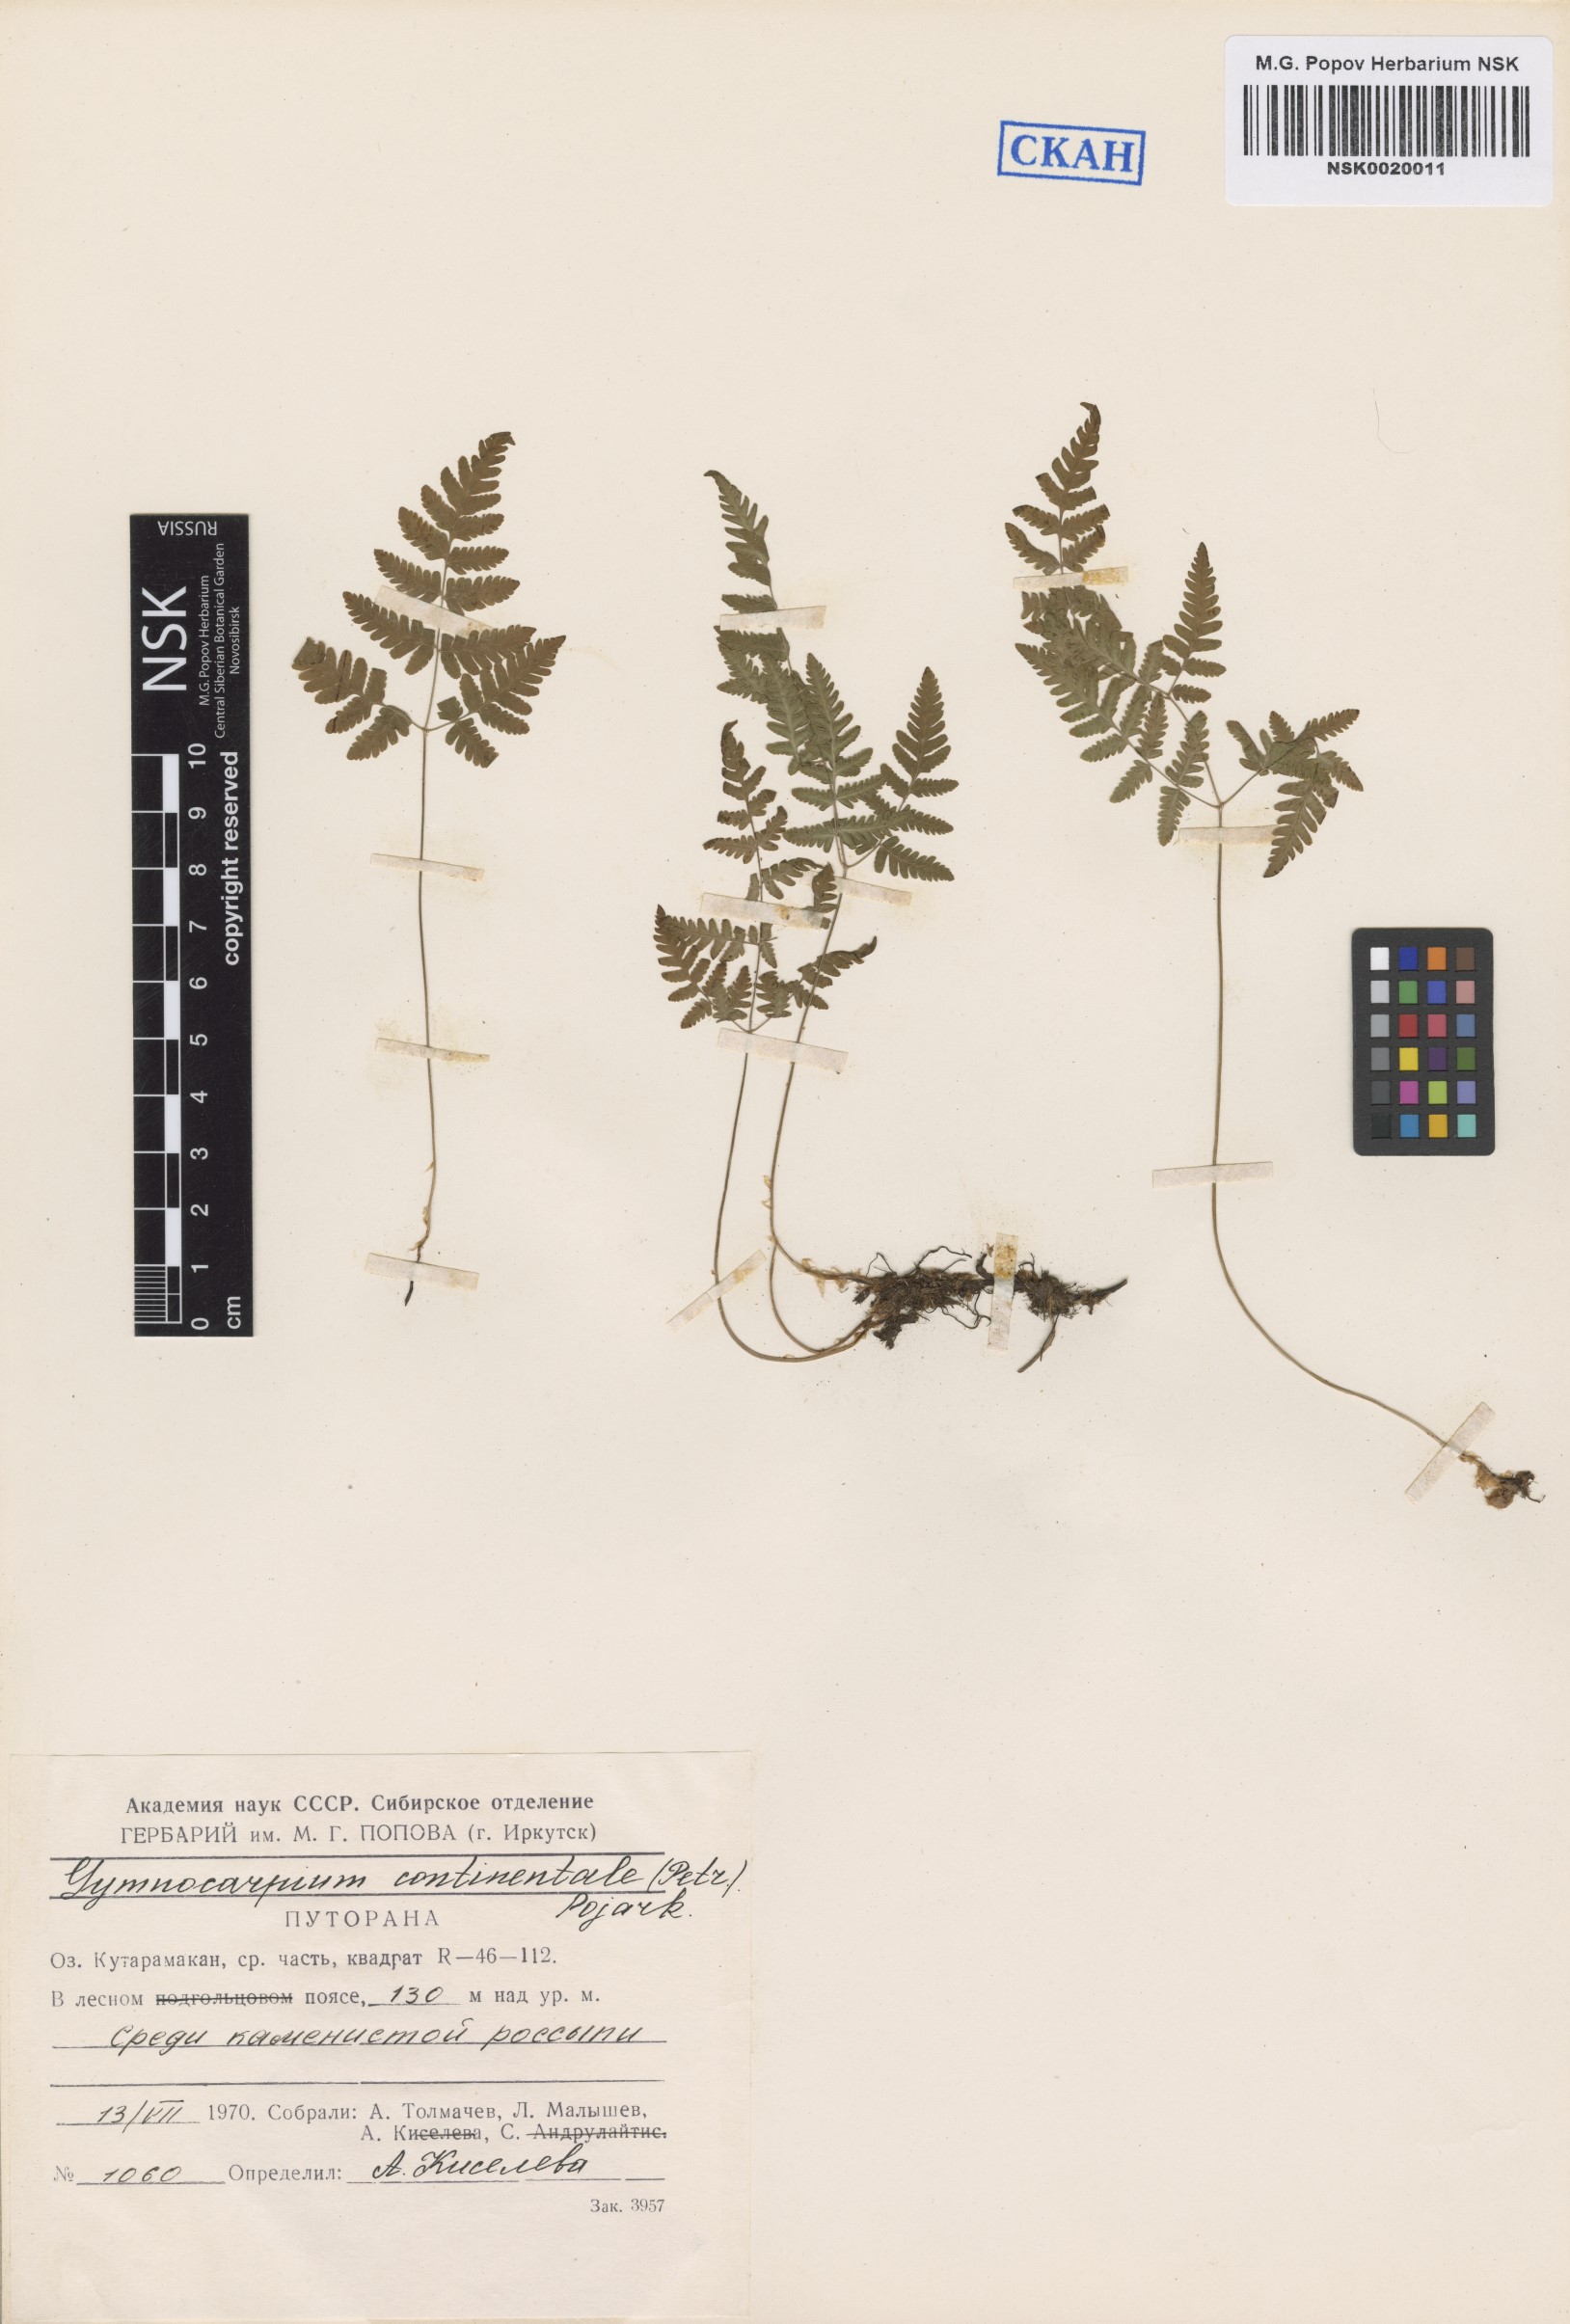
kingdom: Plantae
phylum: Tracheophyta
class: Polypodiopsida
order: Polypodiales
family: Cystopteridaceae
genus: Gymnocarpium
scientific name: Gymnocarpium continentale
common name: Asian oak fern
